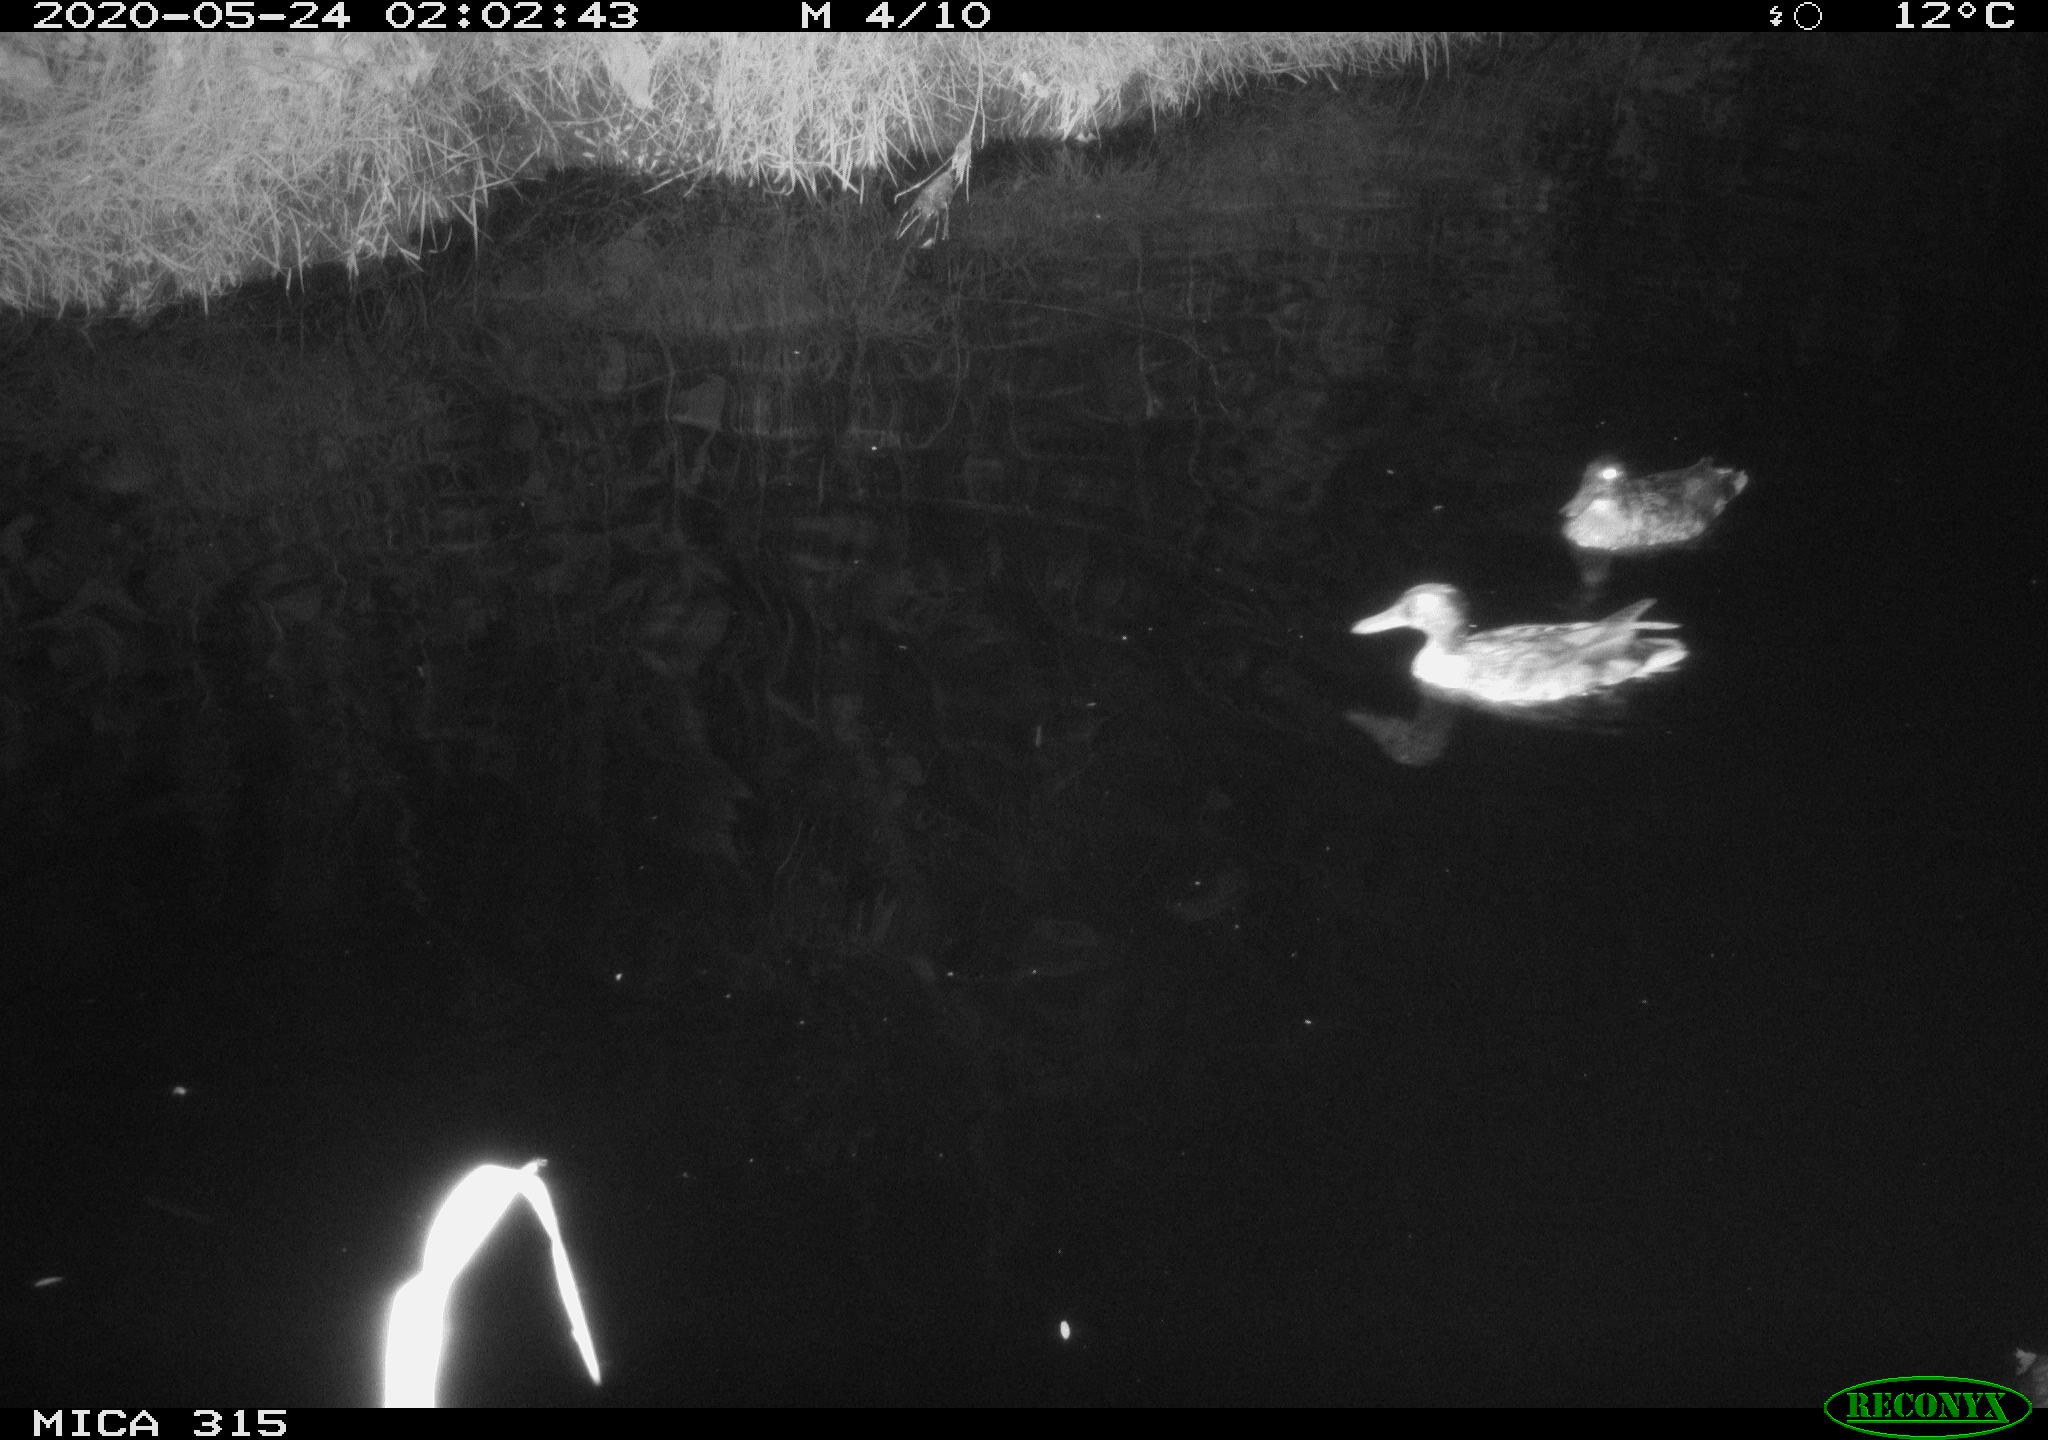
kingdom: Animalia
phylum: Chordata
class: Aves
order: Anseriformes
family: Anatidae
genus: Anas
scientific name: Anas platyrhynchos
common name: Mallard
